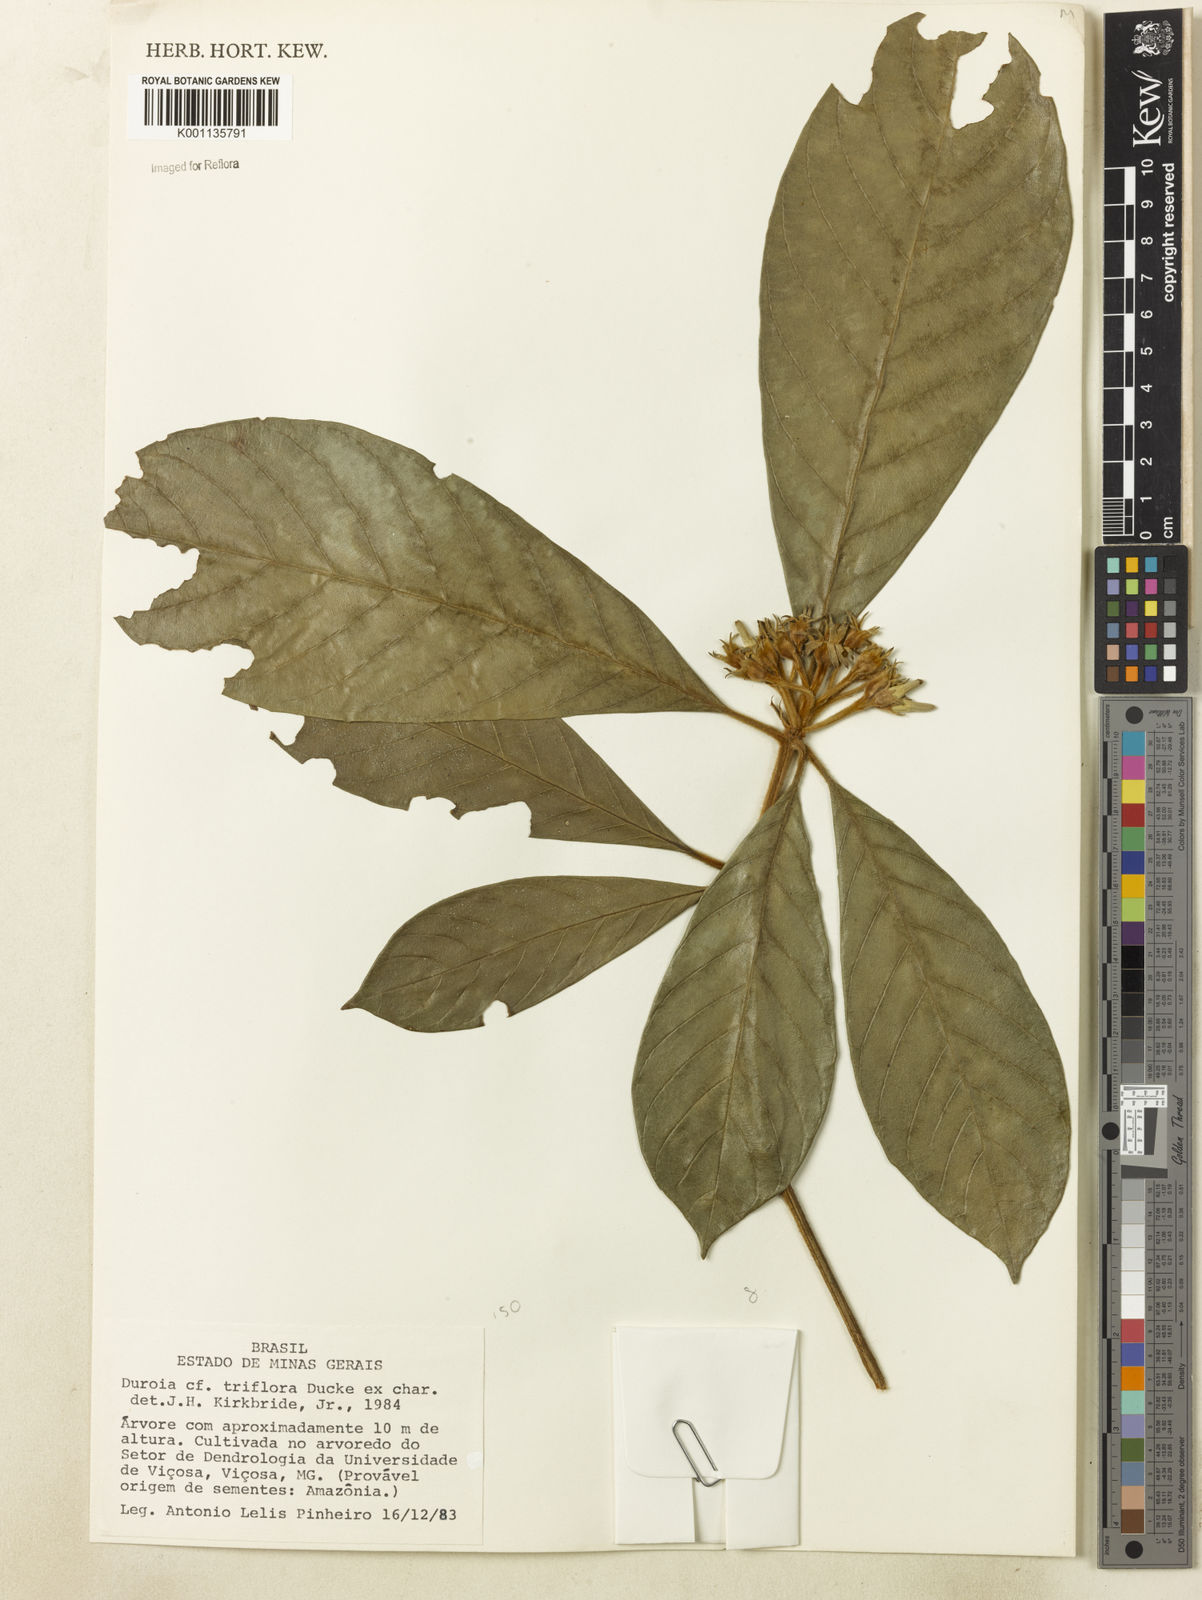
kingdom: Plantae
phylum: Tracheophyta
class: Magnoliopsida
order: Gentianales
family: Rubiaceae
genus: Duroia
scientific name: Duroia triflora
